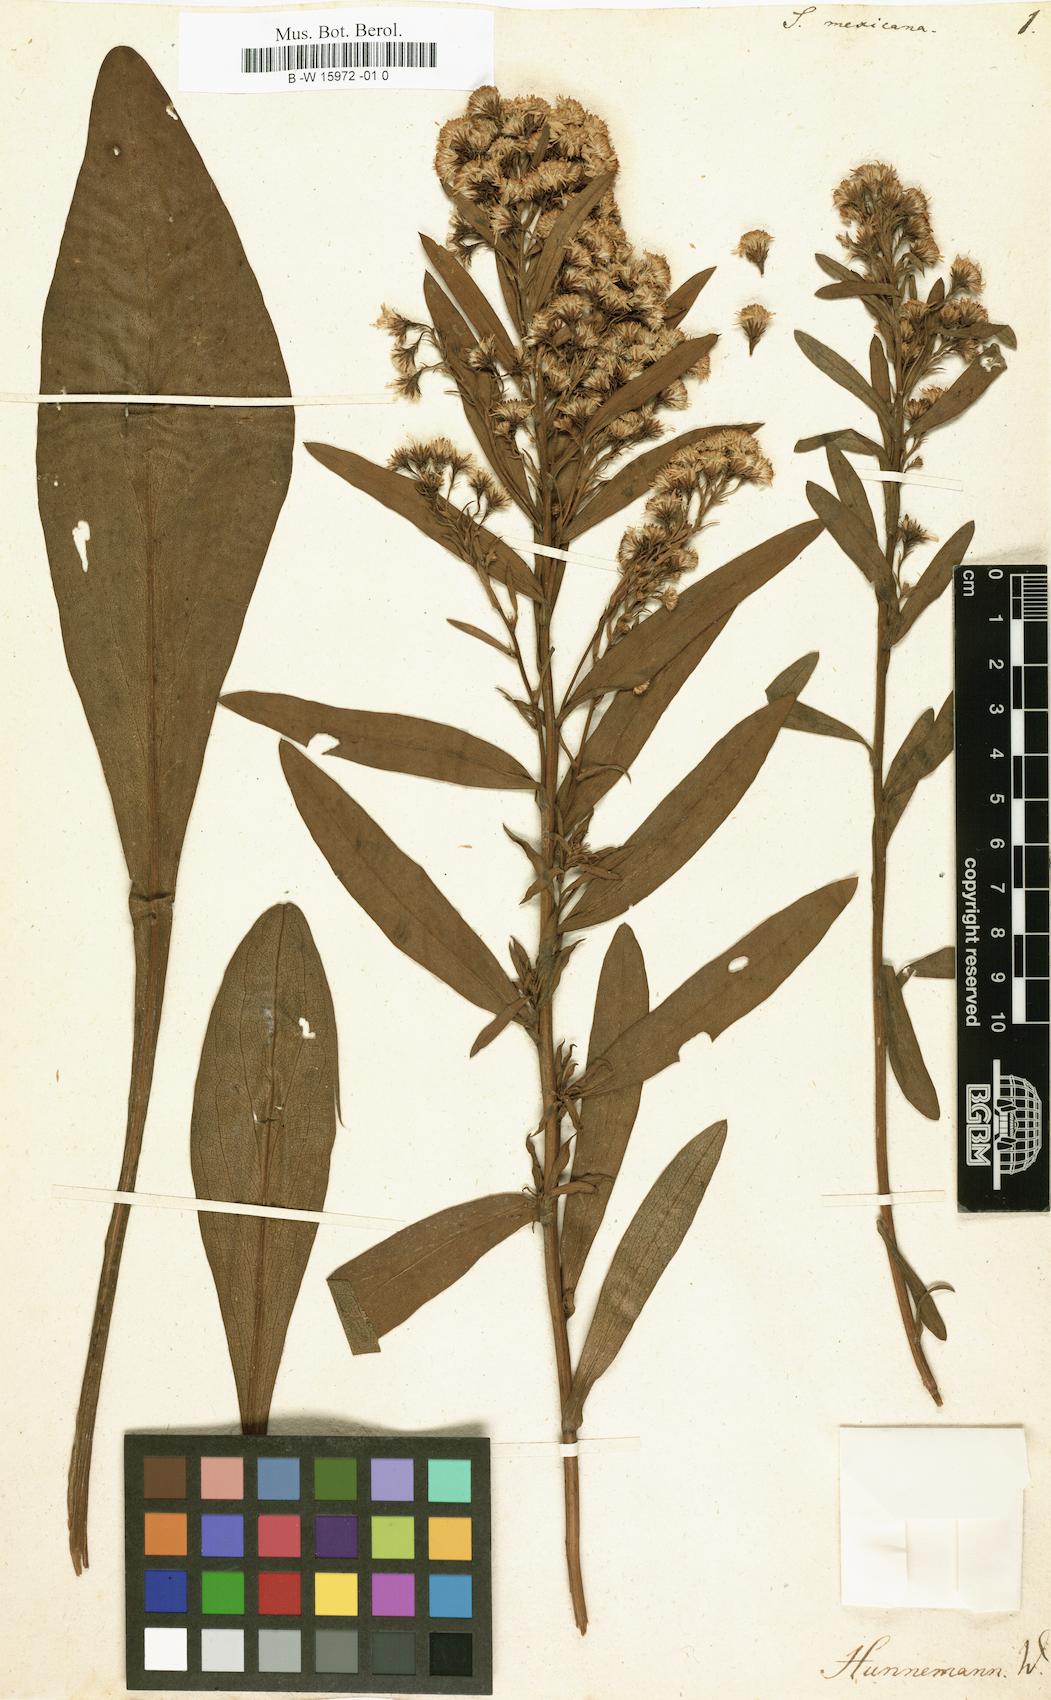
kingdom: Plantae
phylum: Tracheophyta
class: Magnoliopsida
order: Asterales
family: Asteraceae
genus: Solidago
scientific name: Solidago mexicana
